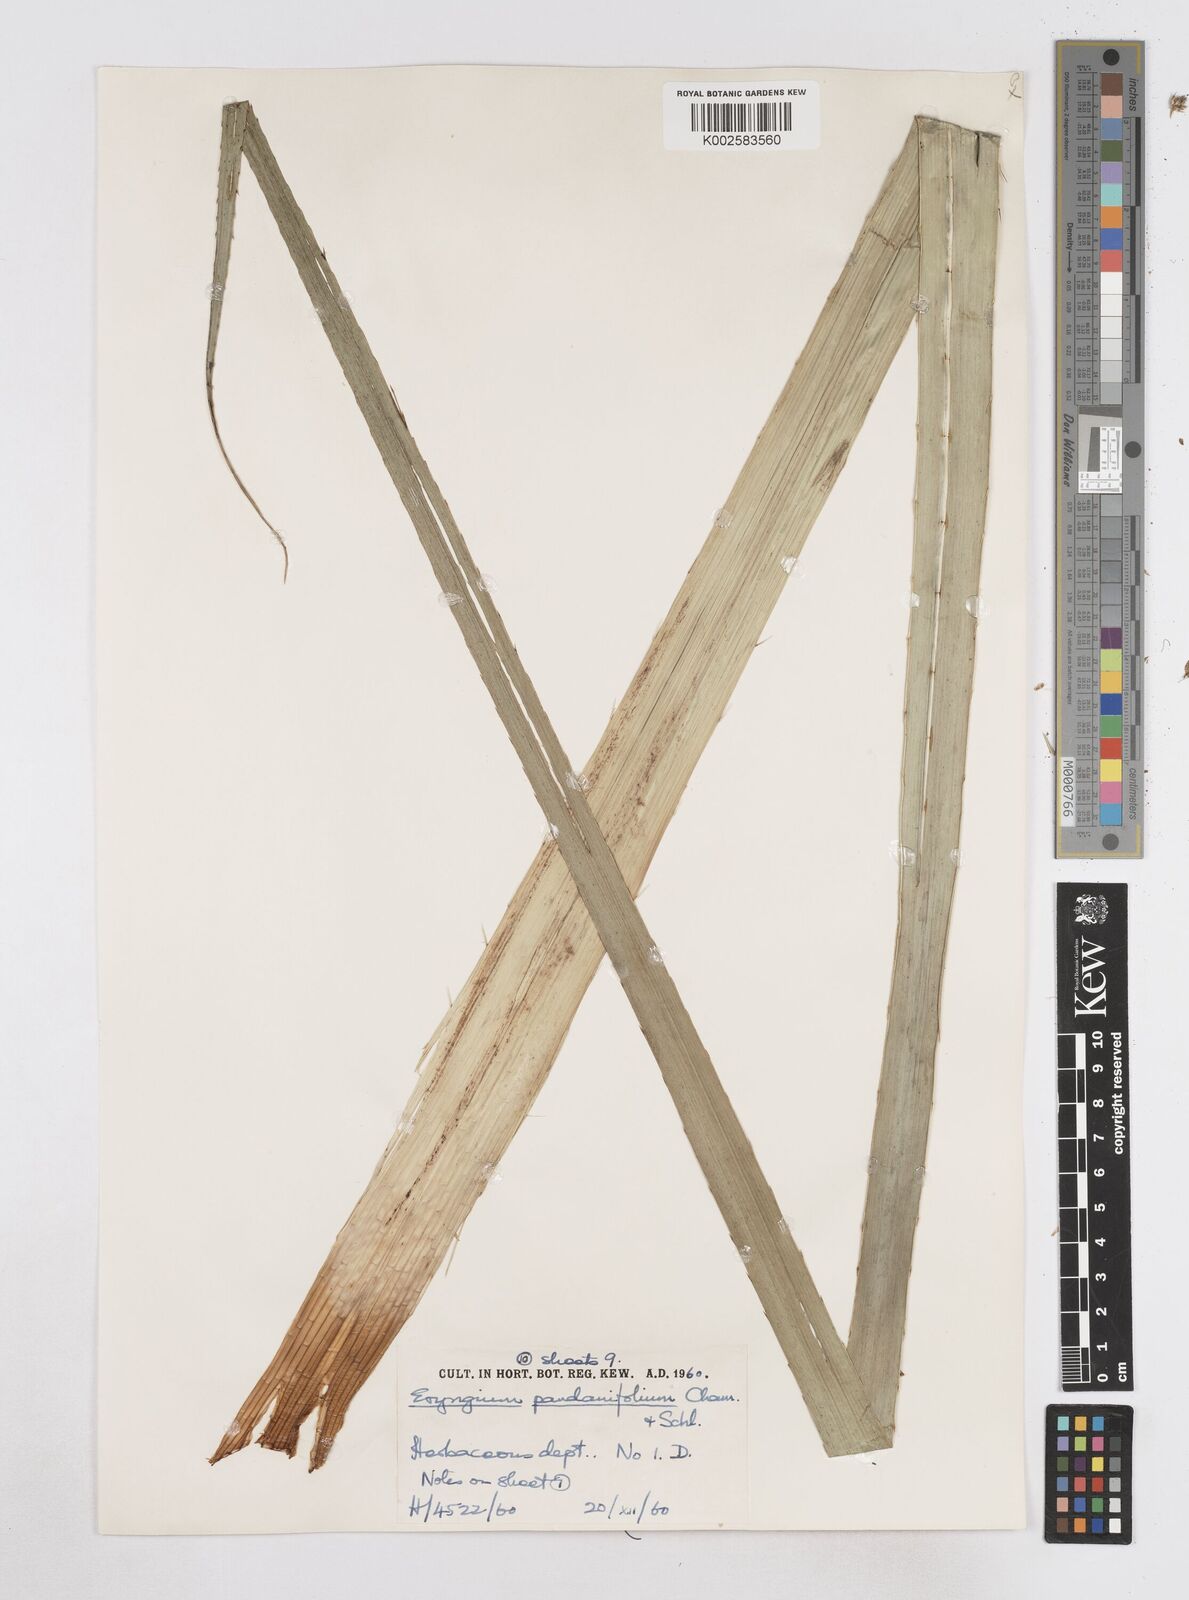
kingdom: Plantae
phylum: Tracheophyta
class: Magnoliopsida
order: Apiales
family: Apiaceae
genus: Eryngium
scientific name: Eryngium pandanifolium
